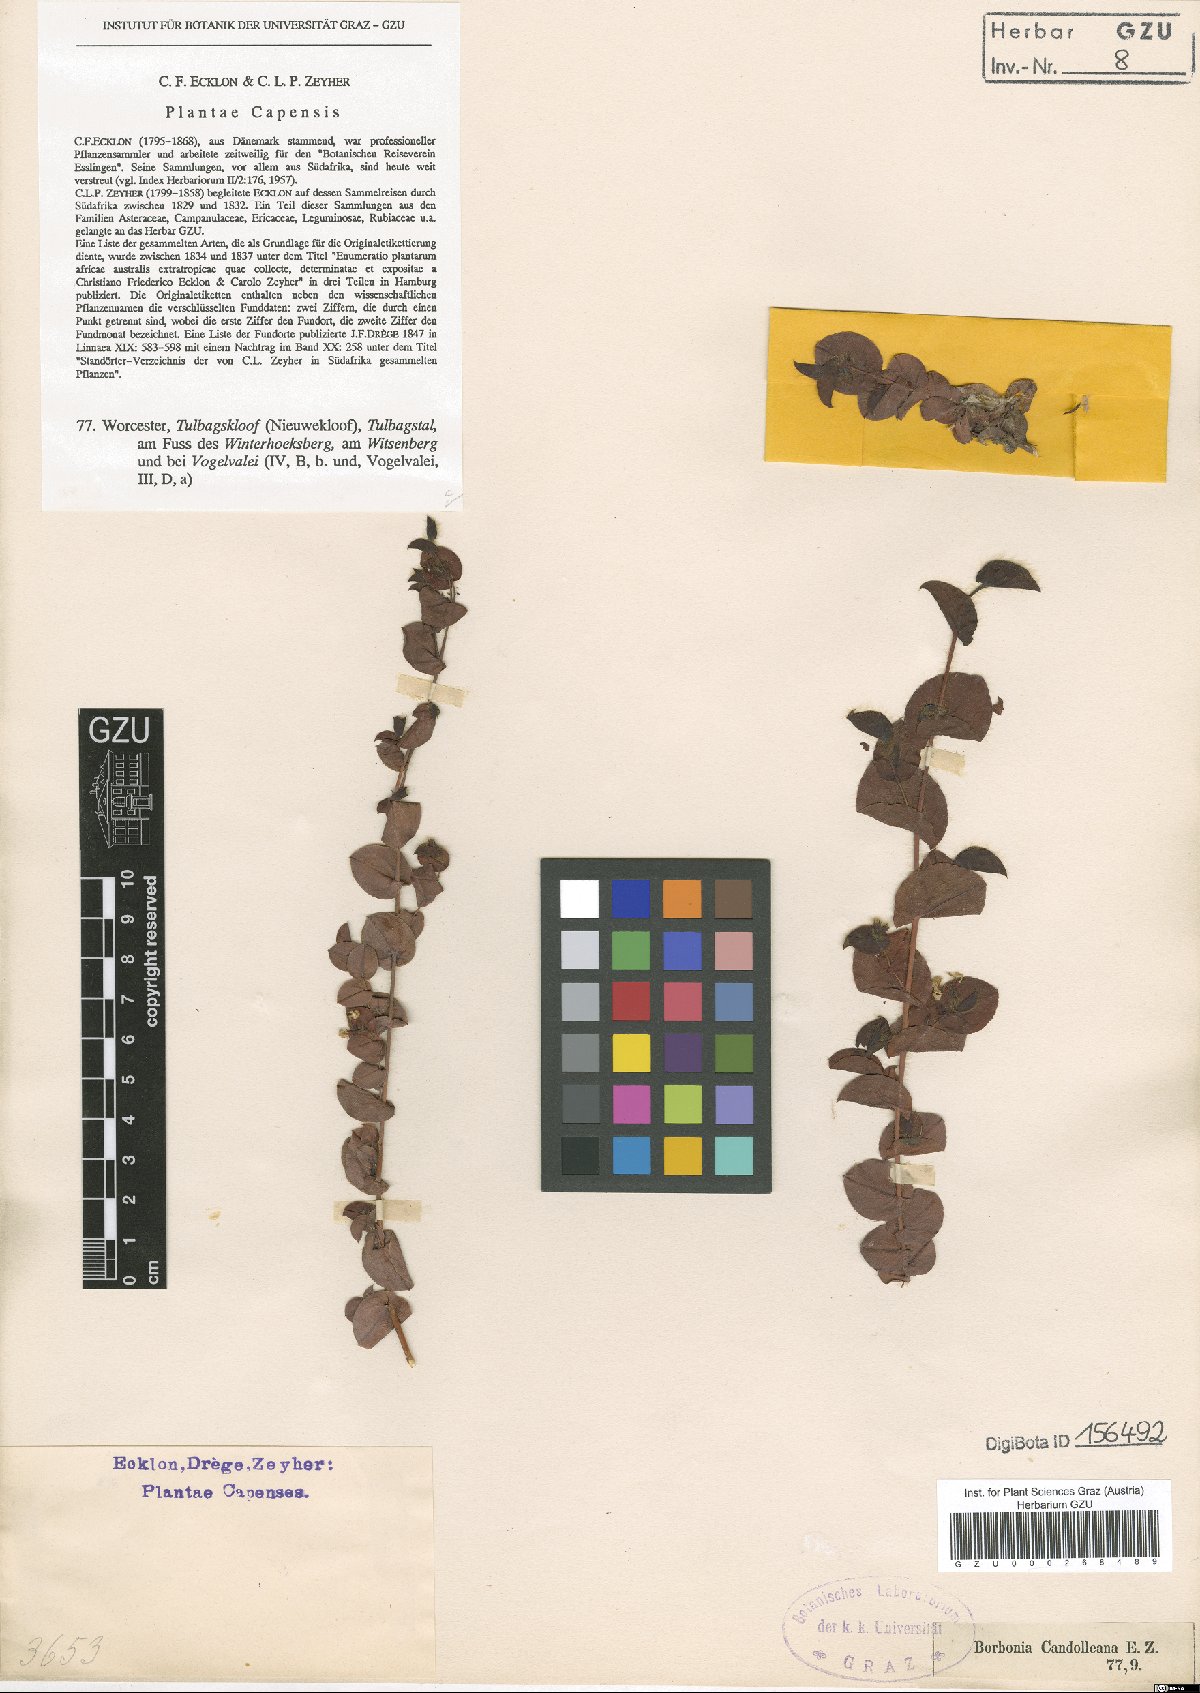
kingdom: Plantae
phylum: Tracheophyta
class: Magnoliopsida
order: Fabales
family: Fabaceae
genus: Aspalathus
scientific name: Aspalathus perforata
